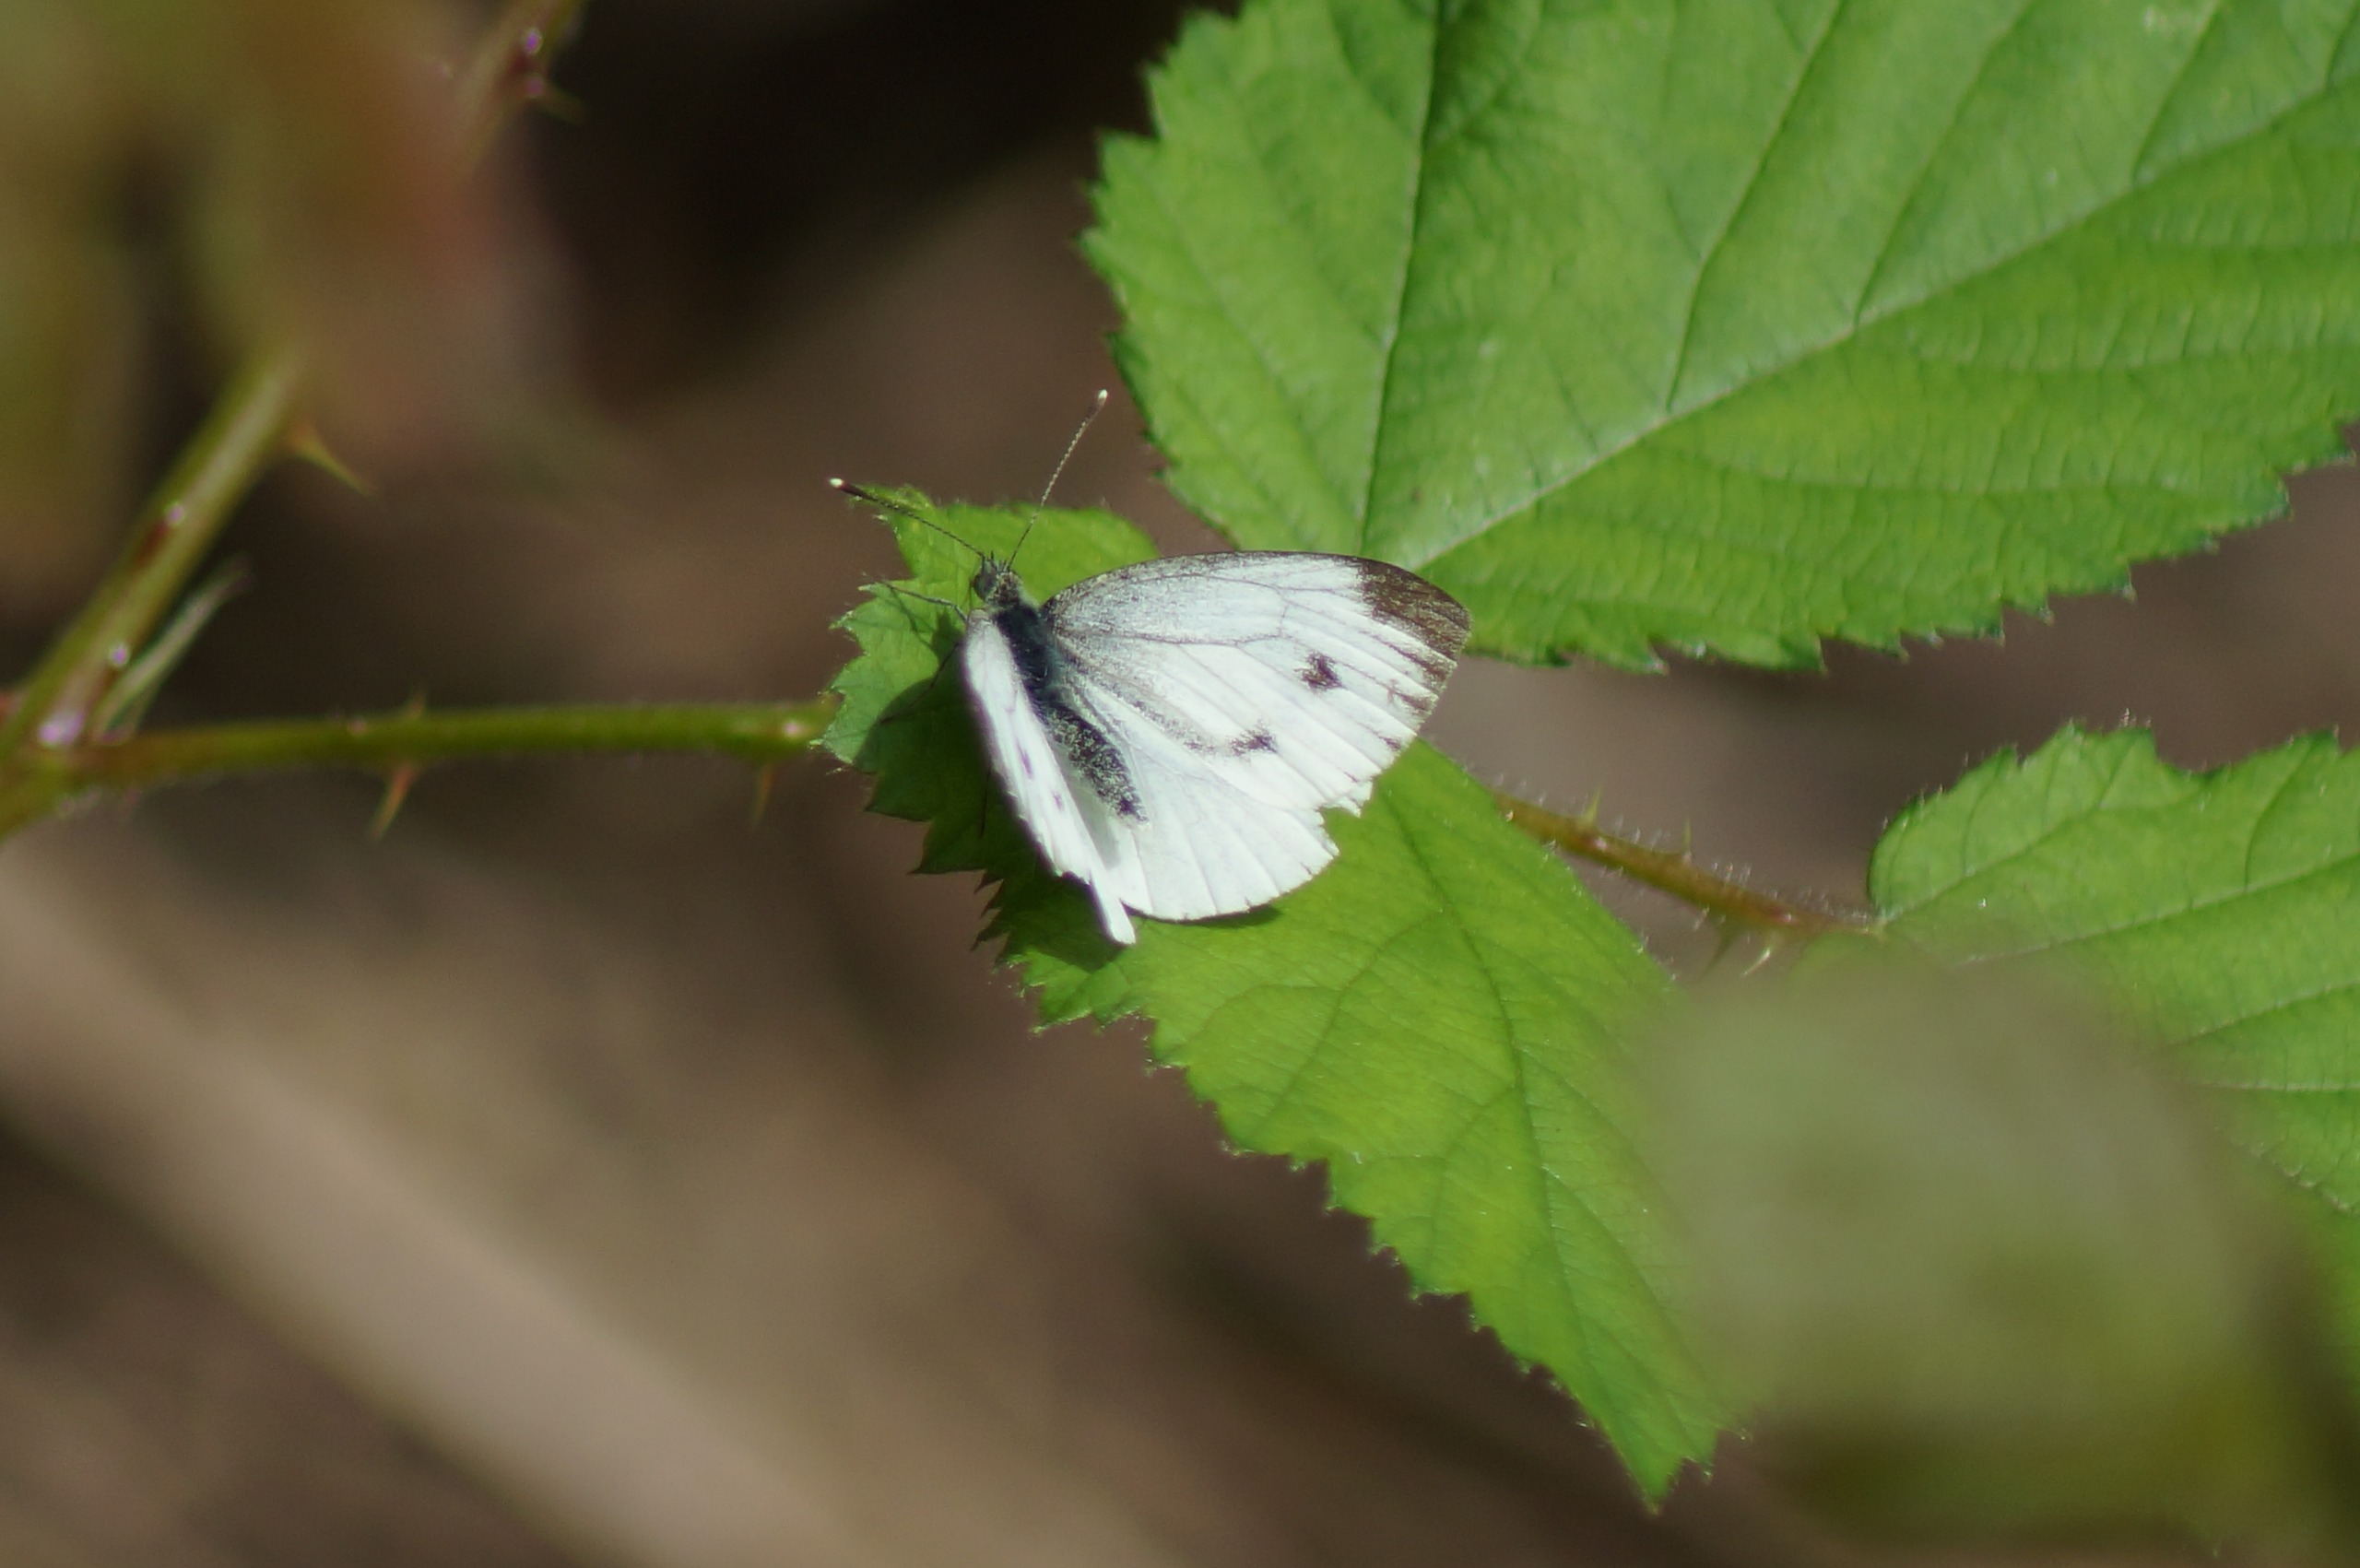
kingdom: Animalia
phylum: Arthropoda
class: Insecta
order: Lepidoptera
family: Pieridae
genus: Pieris
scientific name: Pieris napi
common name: Grønåret kålsommerfugl
